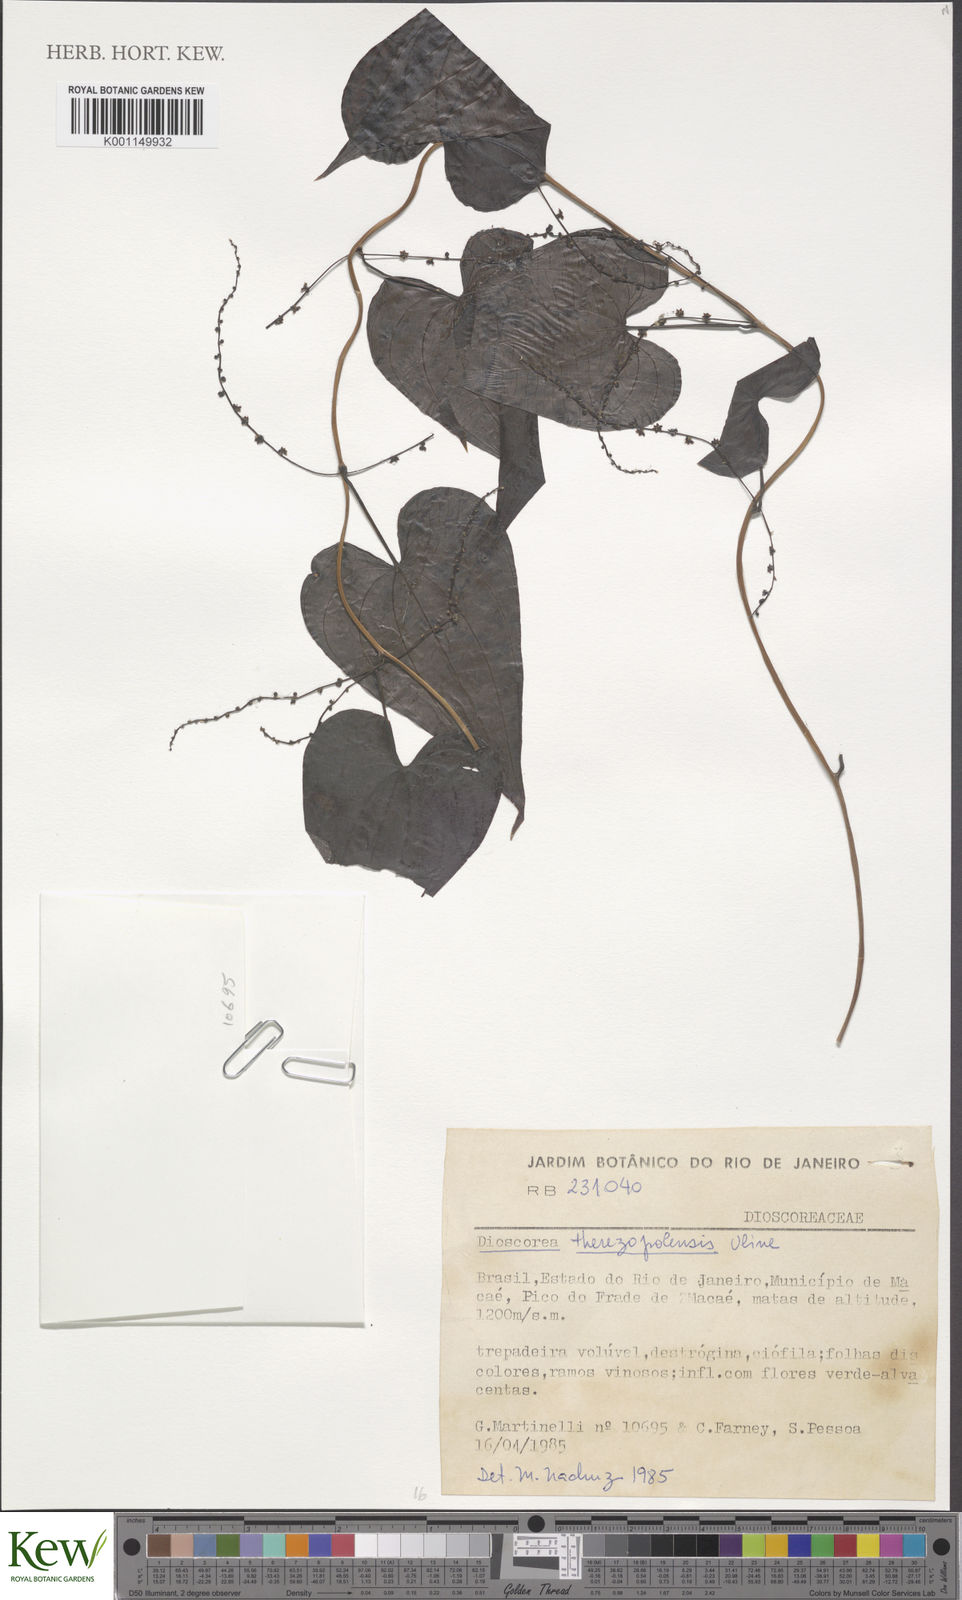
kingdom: Plantae
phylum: Tracheophyta
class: Liliopsida
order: Dioscoreales
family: Dioscoreaceae
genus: Dioscorea
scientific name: Dioscorea therezopolensis
